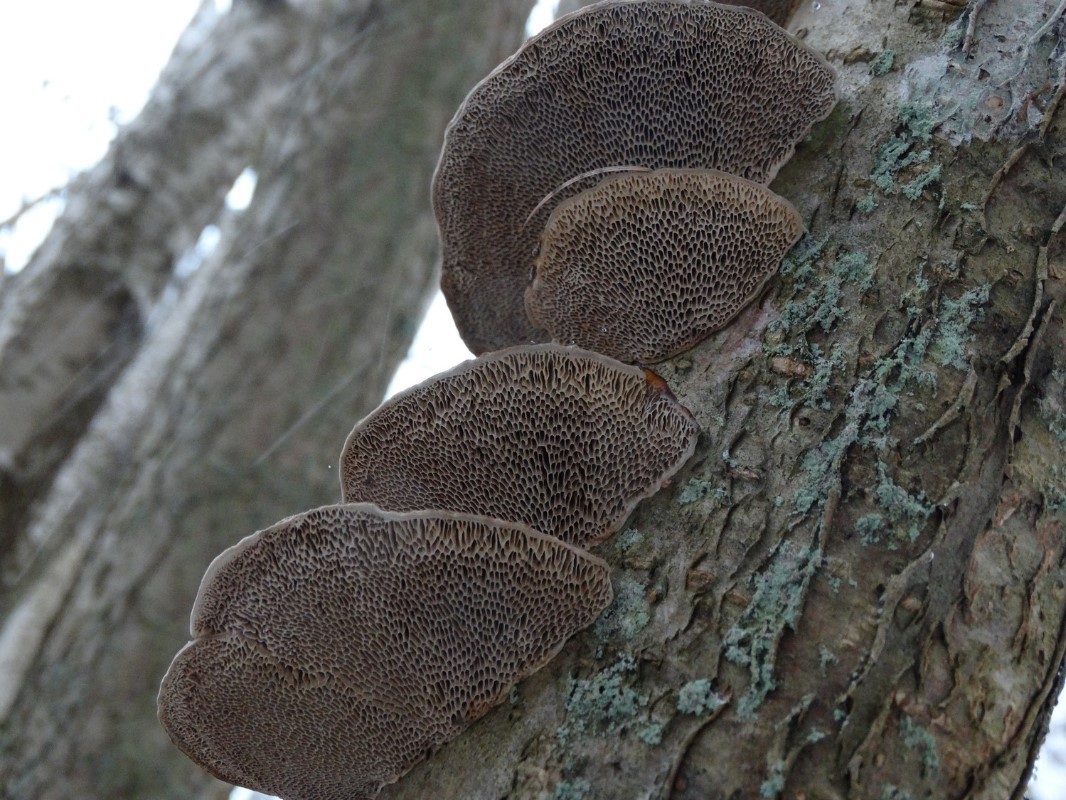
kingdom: Fungi
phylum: Basidiomycota
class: Agaricomycetes
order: Polyporales
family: Polyporaceae
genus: Daedaleopsis
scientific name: Daedaleopsis confragosa
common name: rødmende læderporesvamp
